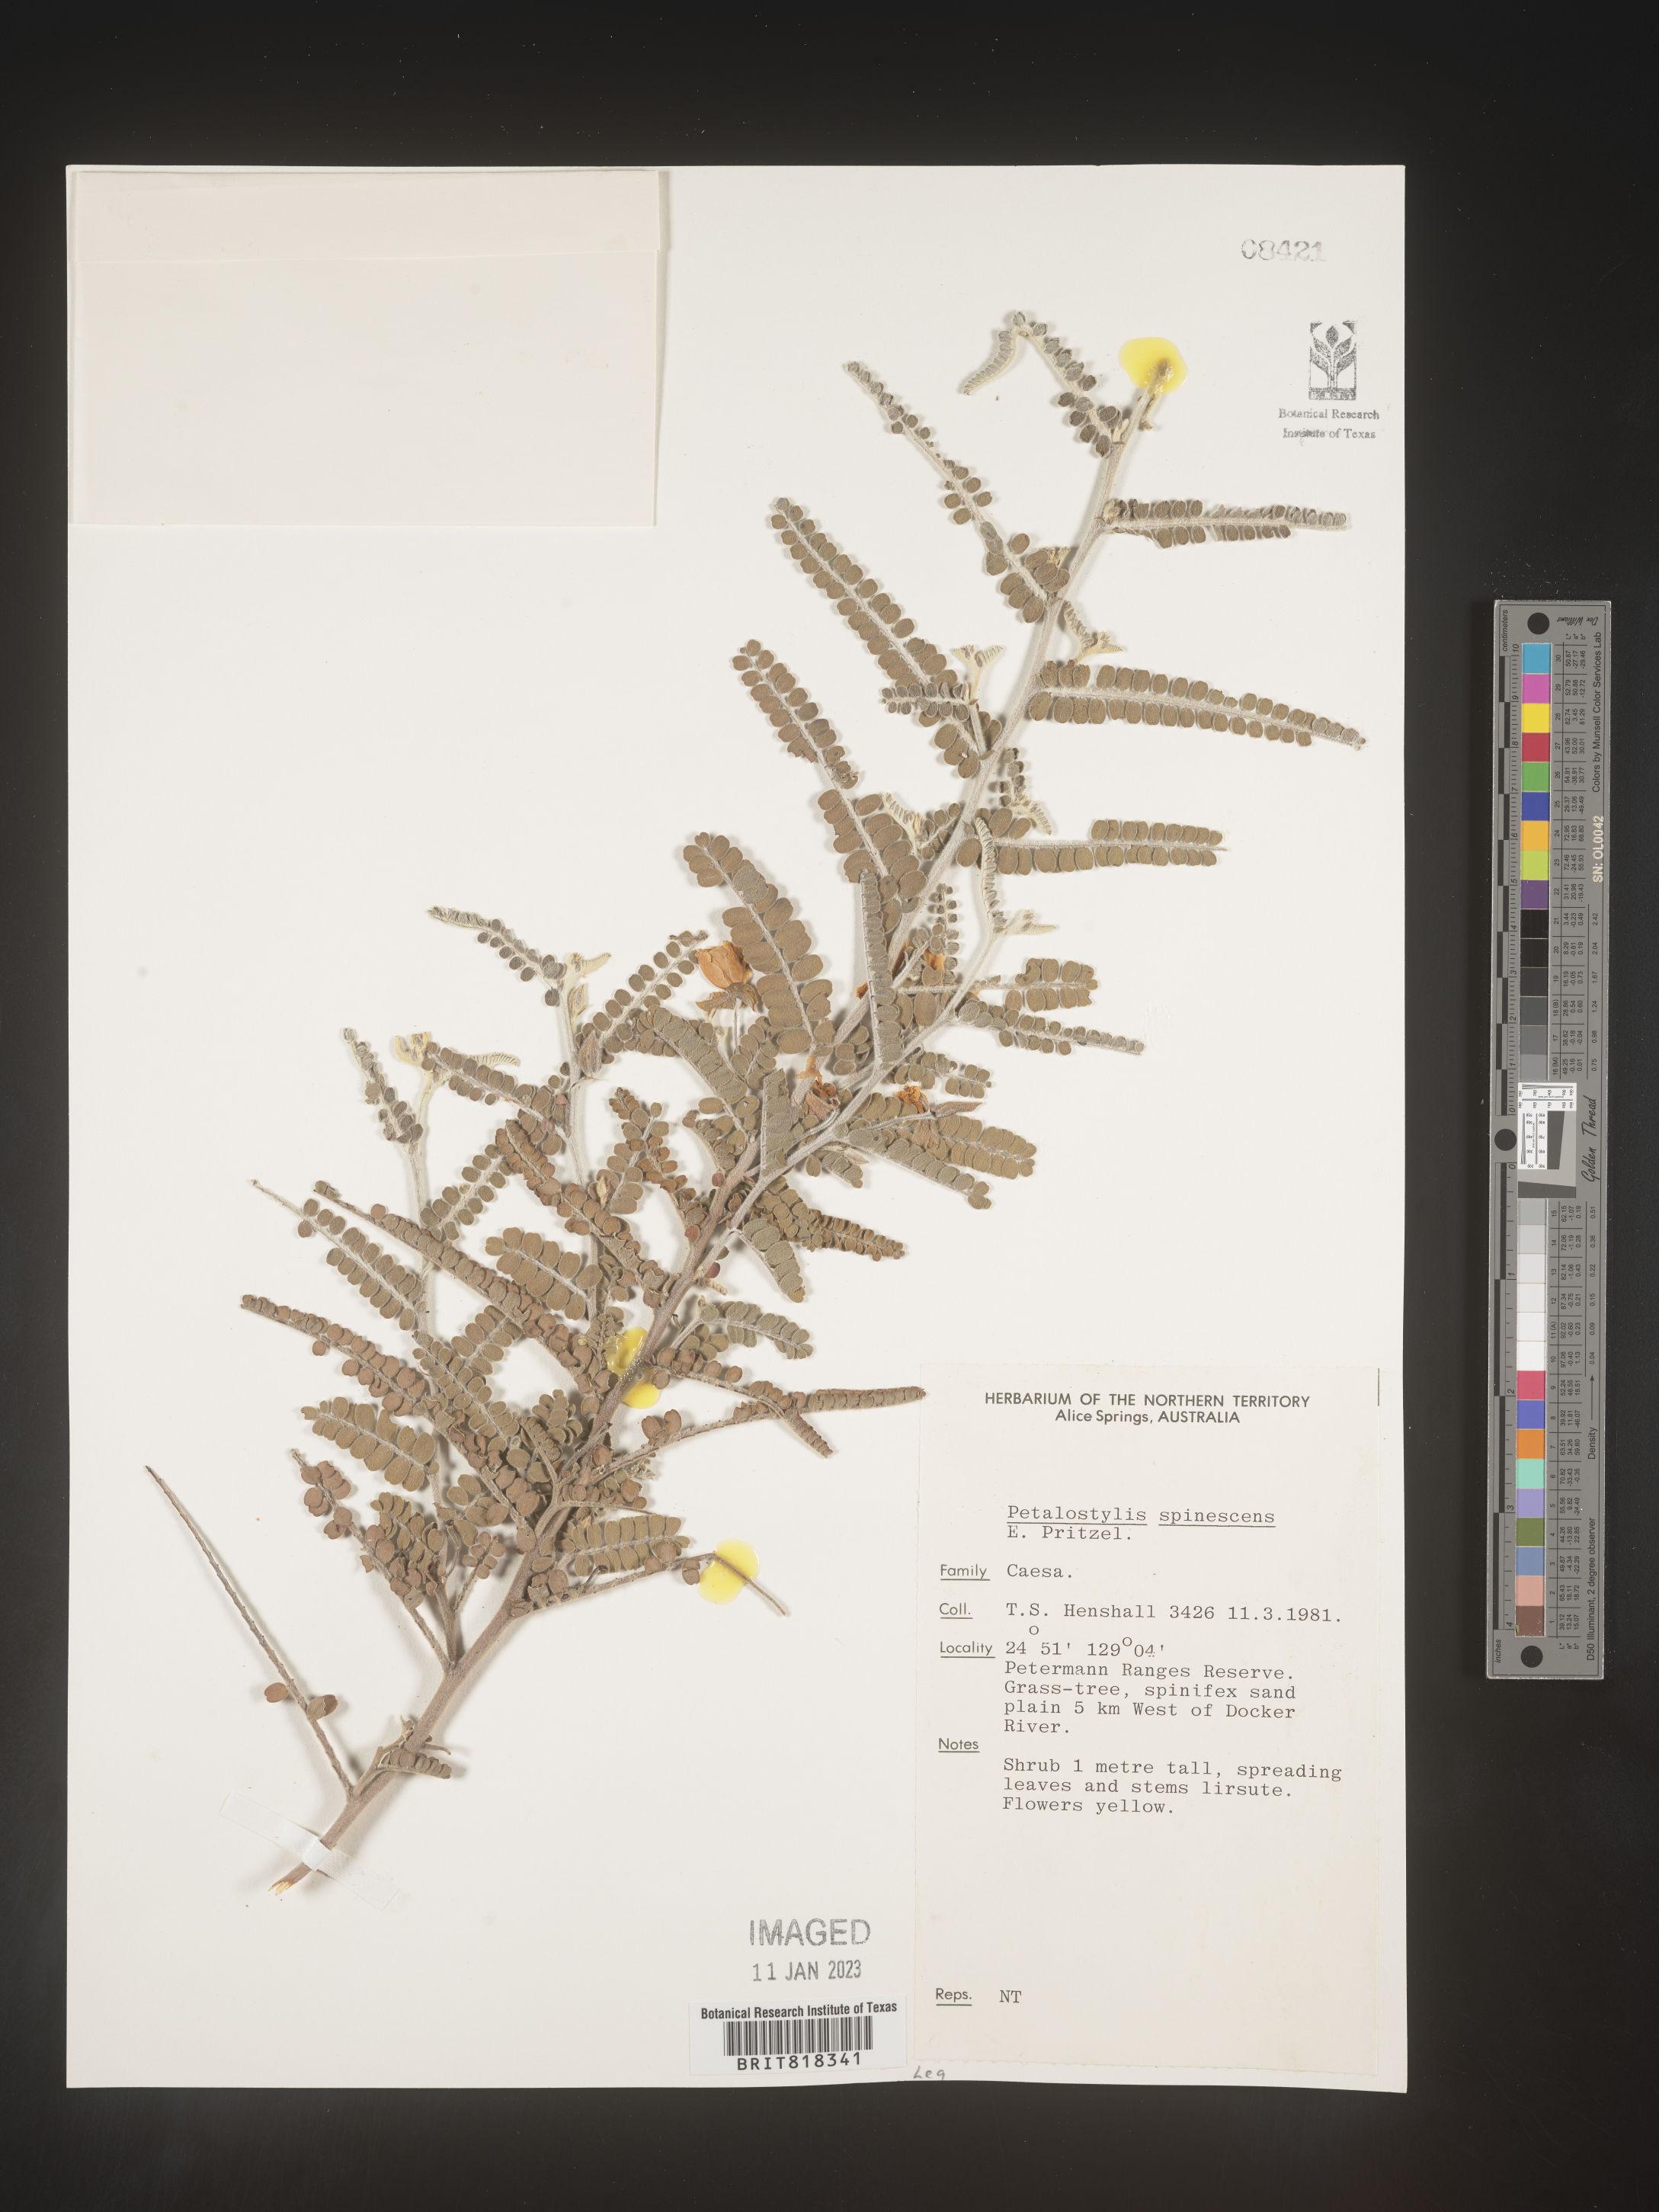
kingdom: Plantae
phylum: Tracheophyta
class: Magnoliopsida
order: Fabales
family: Fabaceae
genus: Dalea
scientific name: Dalea
